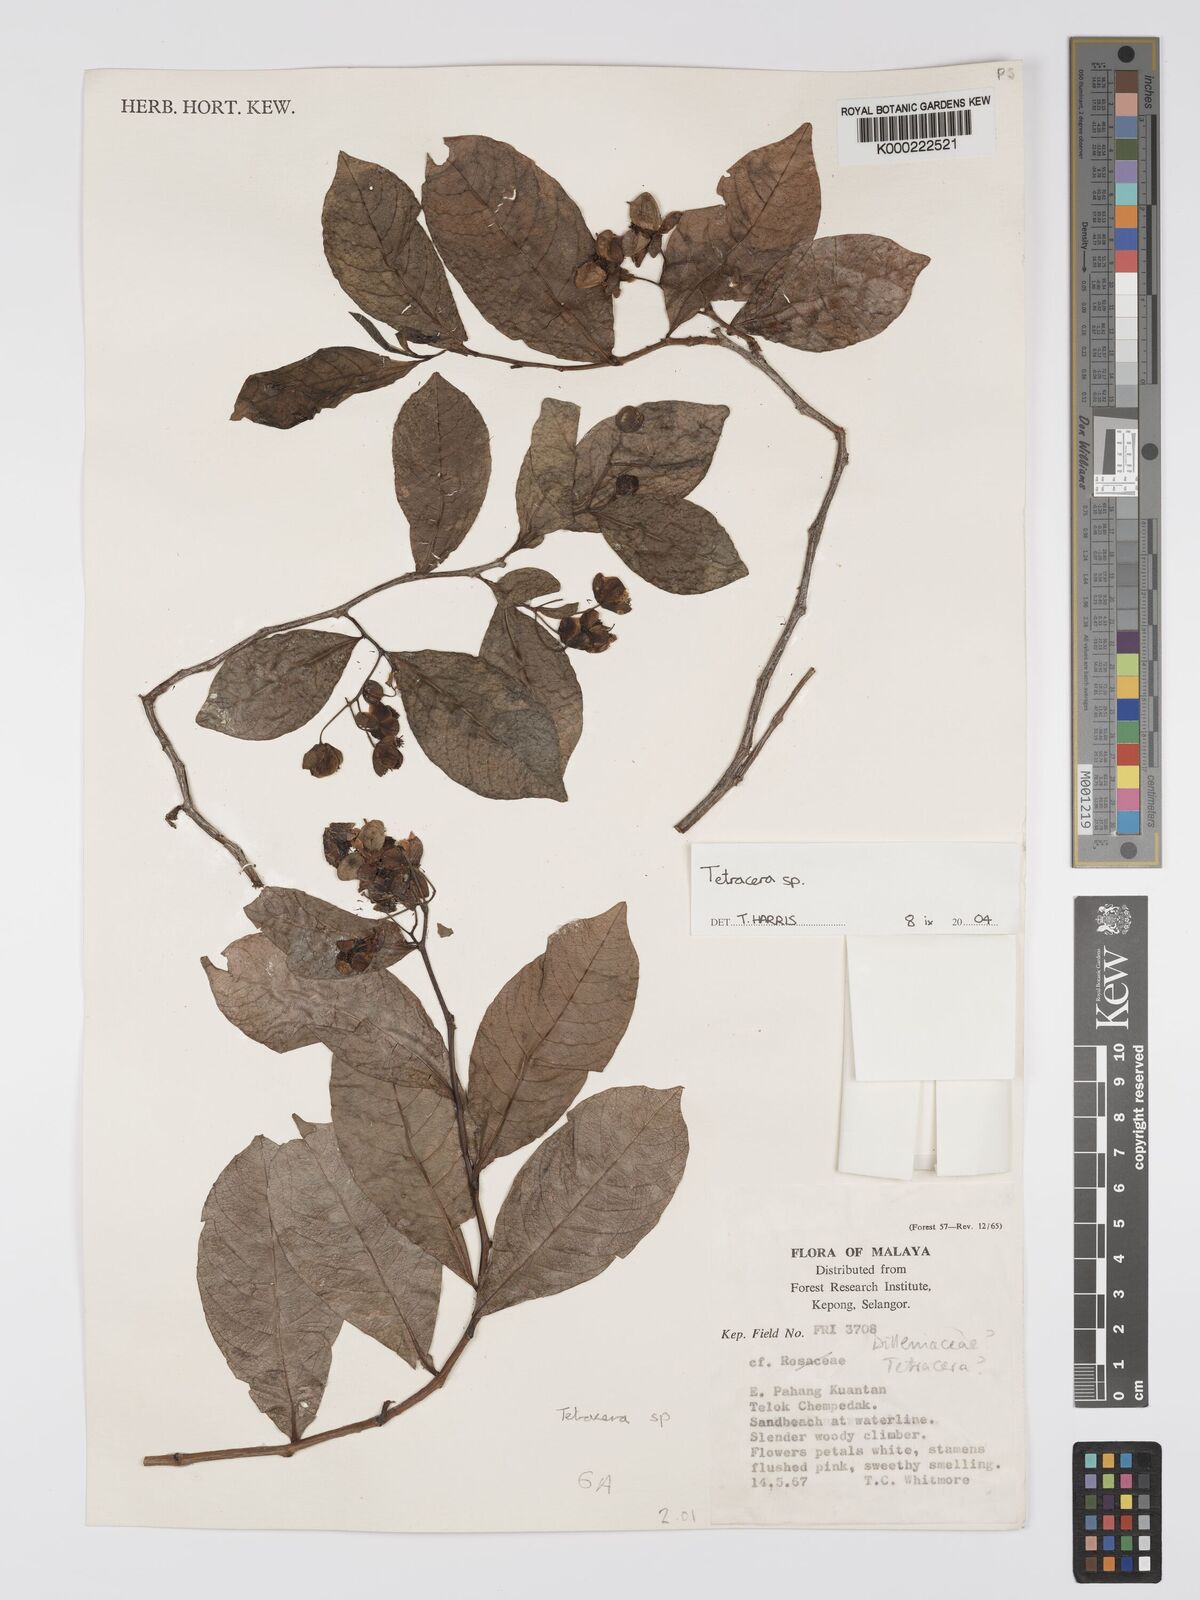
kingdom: Plantae
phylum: Tracheophyta
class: Magnoliopsida
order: Dilleniales
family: Dilleniaceae
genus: Tetracera
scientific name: Tetracera
